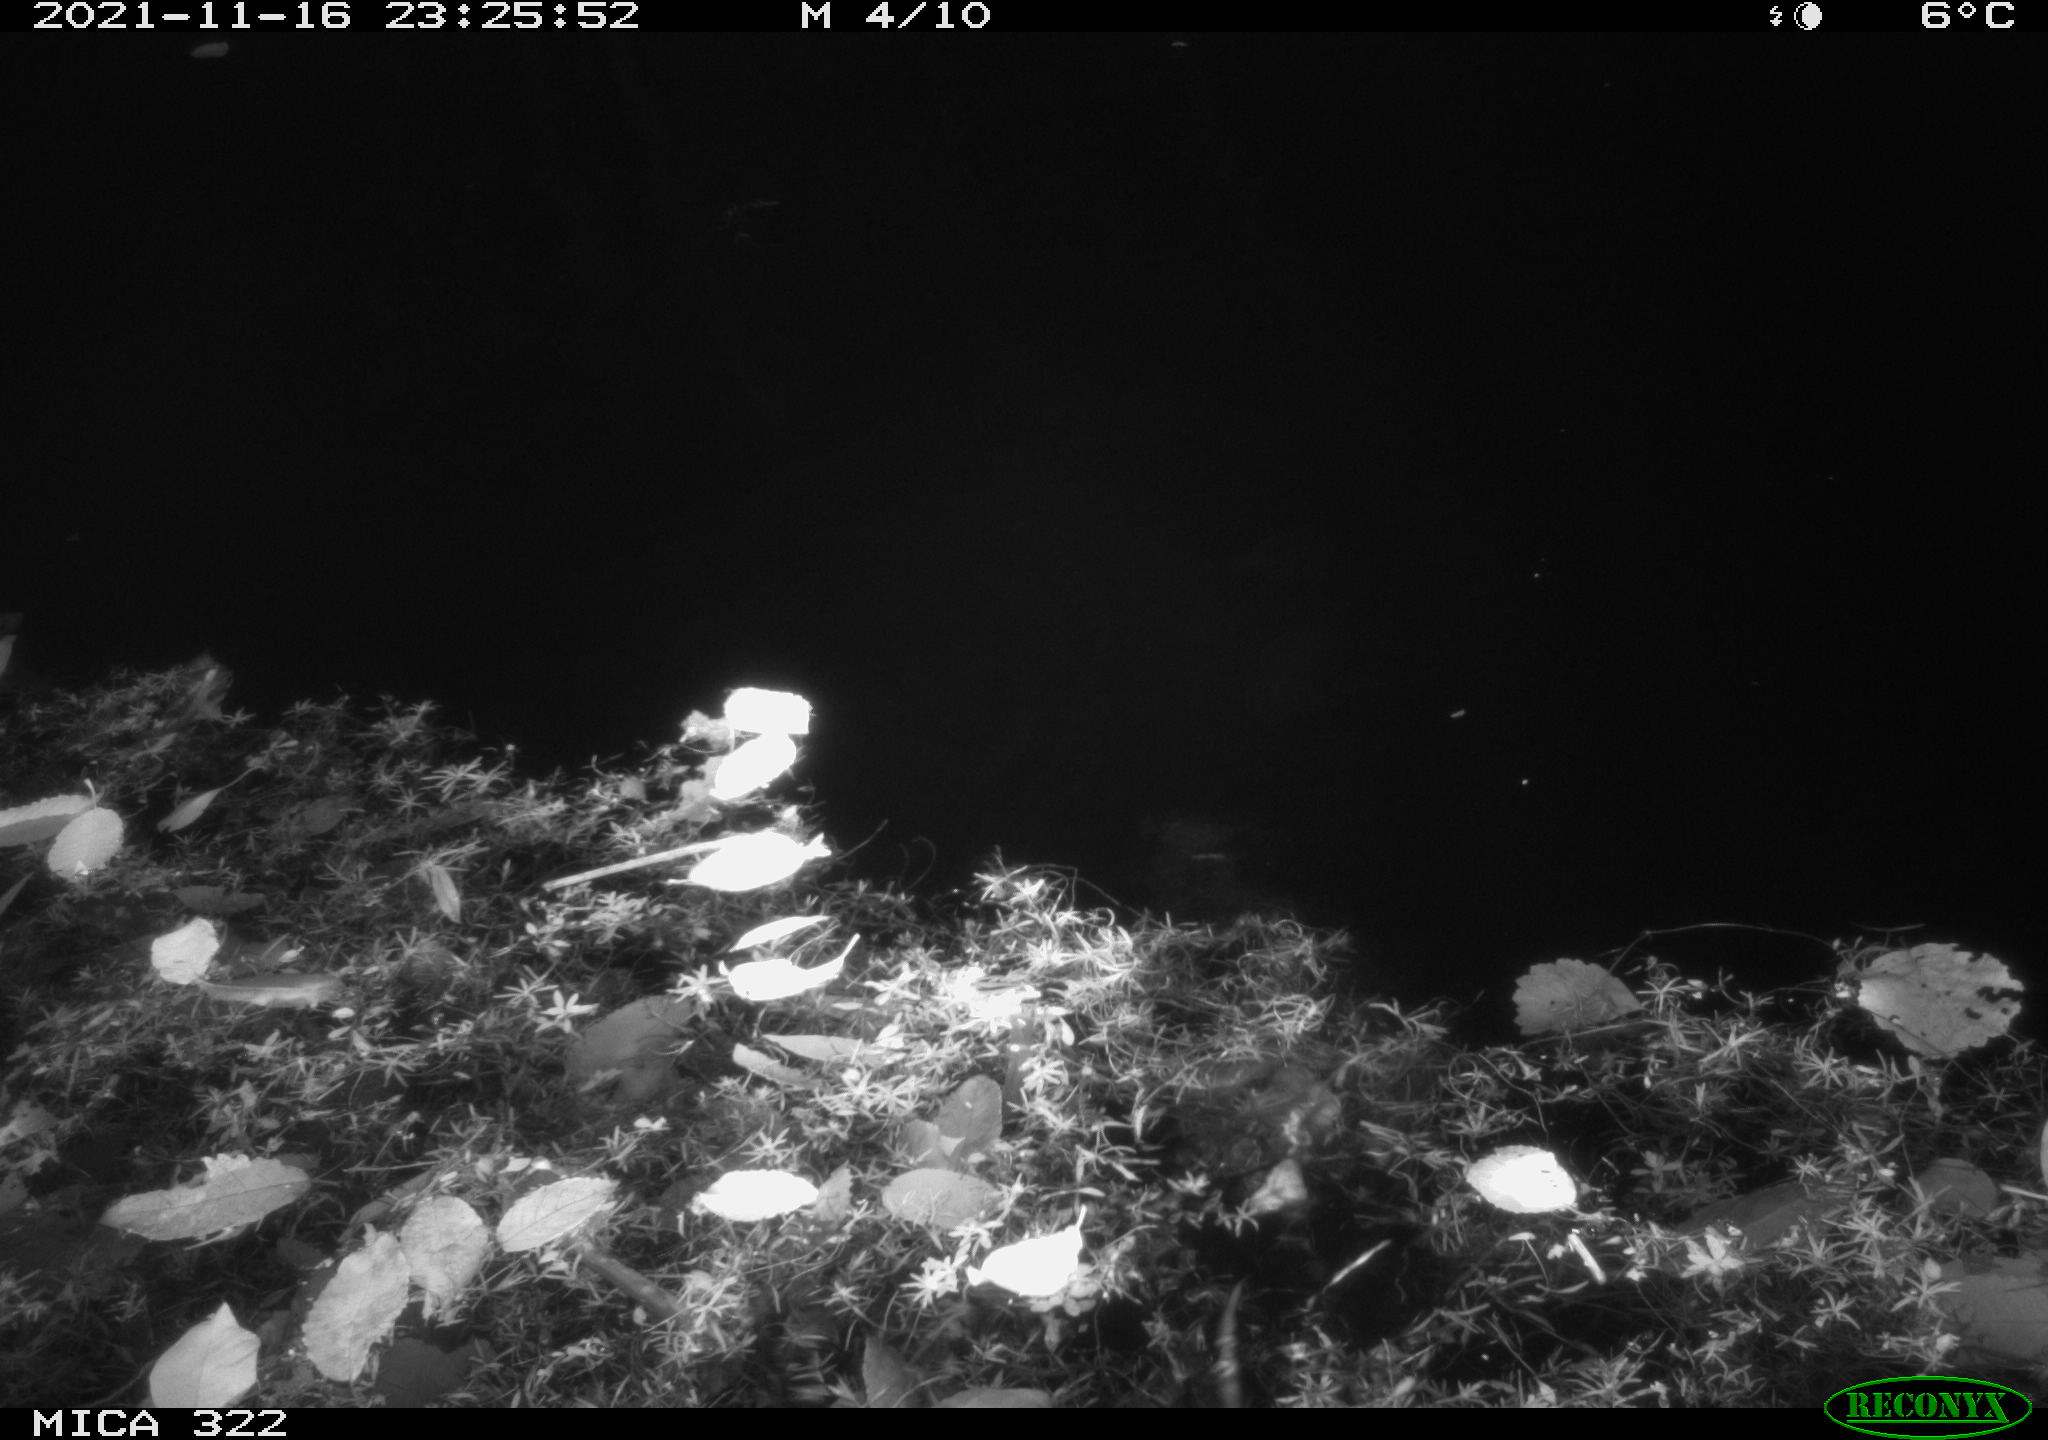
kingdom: Animalia
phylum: Chordata
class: Mammalia
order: Rodentia
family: Cricetidae
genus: Ondatra
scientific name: Ondatra zibethicus
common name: Muskrat
